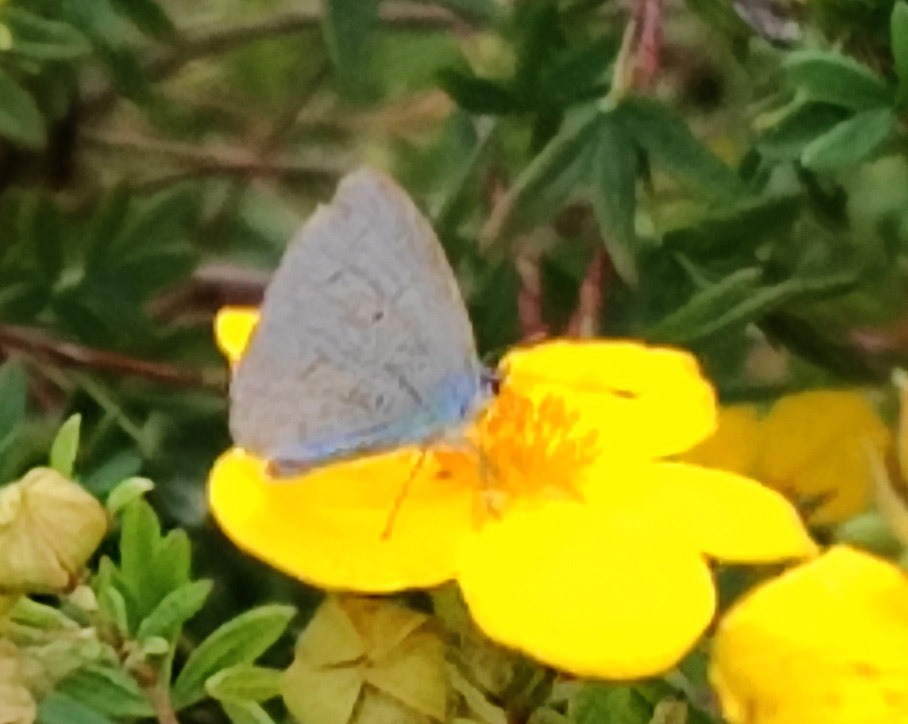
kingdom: Animalia
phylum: Arthropoda
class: Insecta
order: Lepidoptera
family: Lycaenidae
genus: Celastrina
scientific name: Celastrina argiolus
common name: Skovblåfugl
